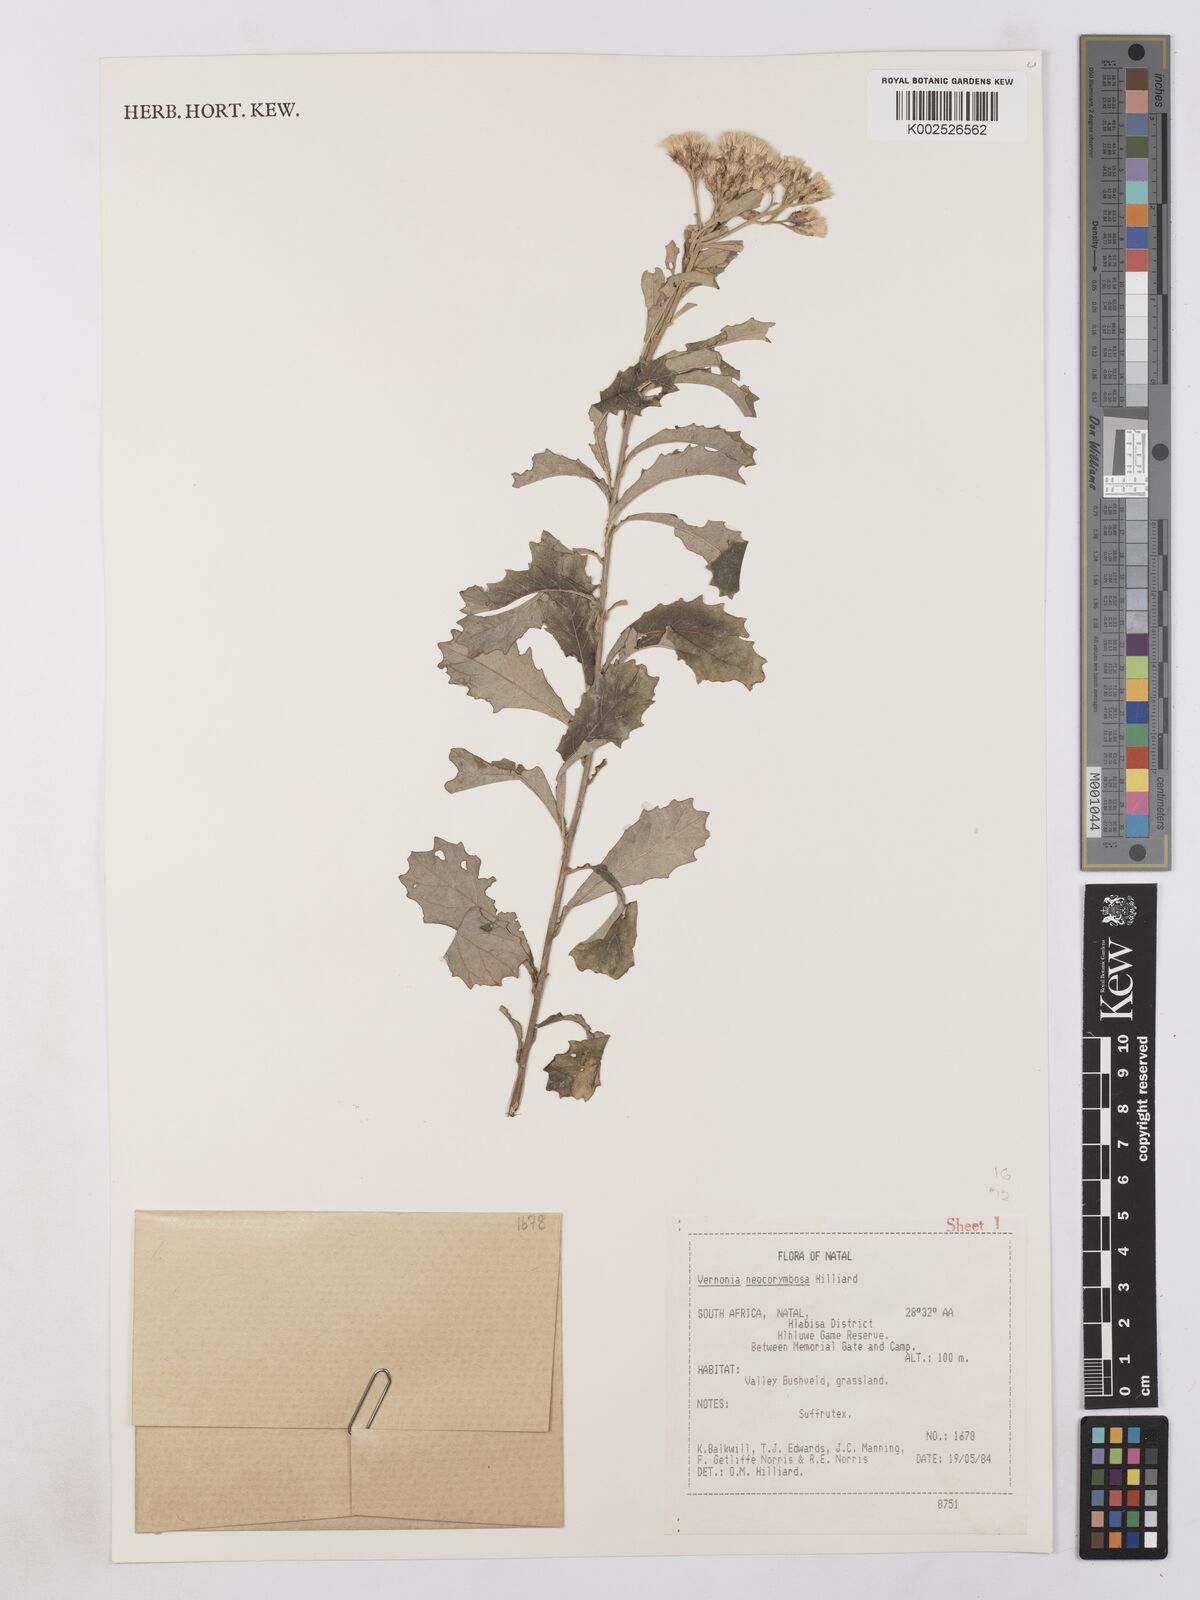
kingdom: Plantae
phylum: Tracheophyta
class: Magnoliopsida
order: Asterales
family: Asteraceae
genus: Gymnanthemum
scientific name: Gymnanthemum corymbosum
